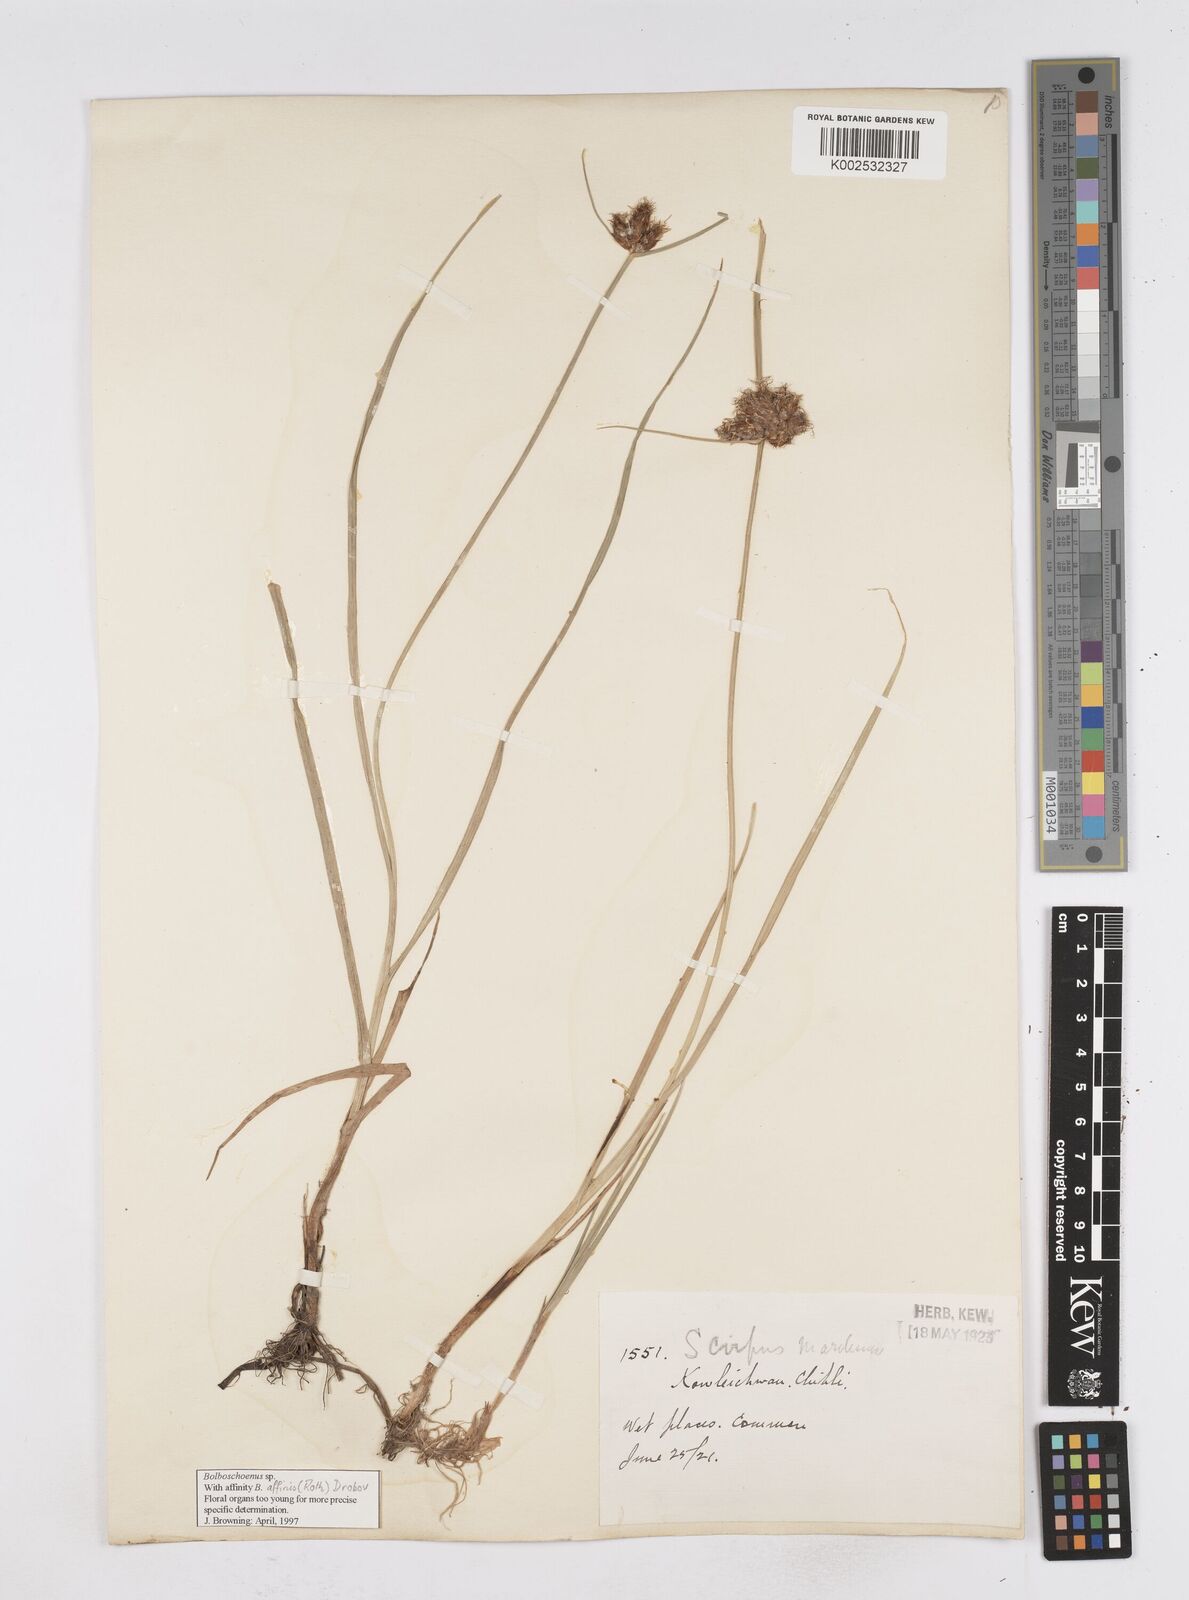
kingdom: Plantae
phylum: Tracheophyta
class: Liliopsida
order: Poales
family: Cyperaceae
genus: Bolboschoenus
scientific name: Bolboschoenus maritimus
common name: Sea club-rush
